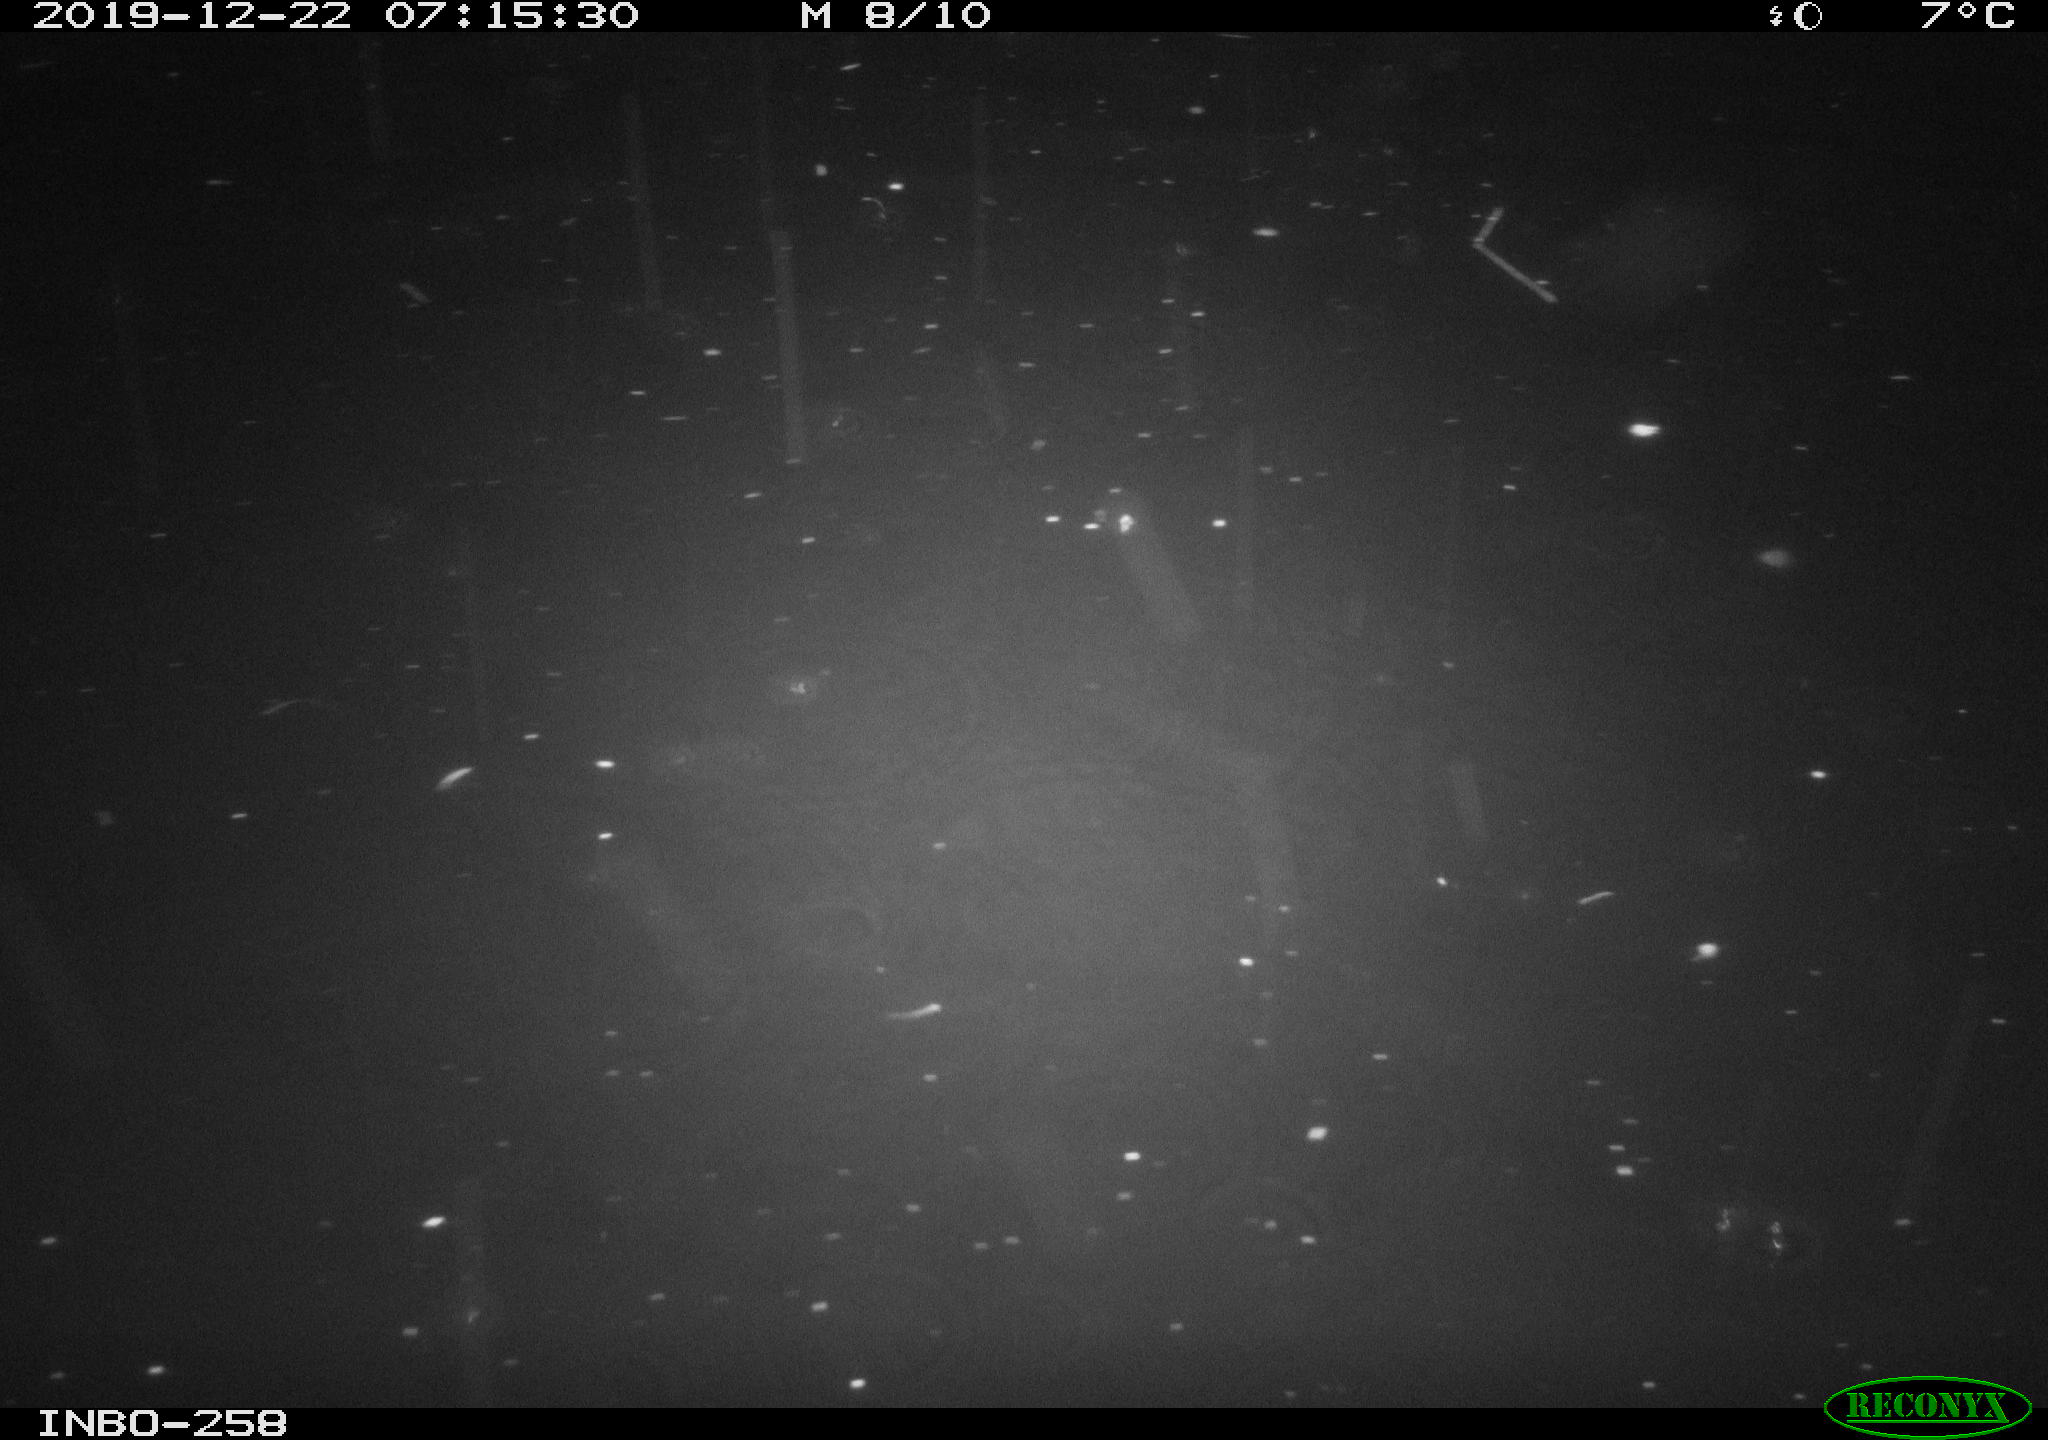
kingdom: Animalia
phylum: Chordata
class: Aves
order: Anseriformes
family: Anatidae
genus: Anas
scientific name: Anas platyrhynchos
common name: Mallard
